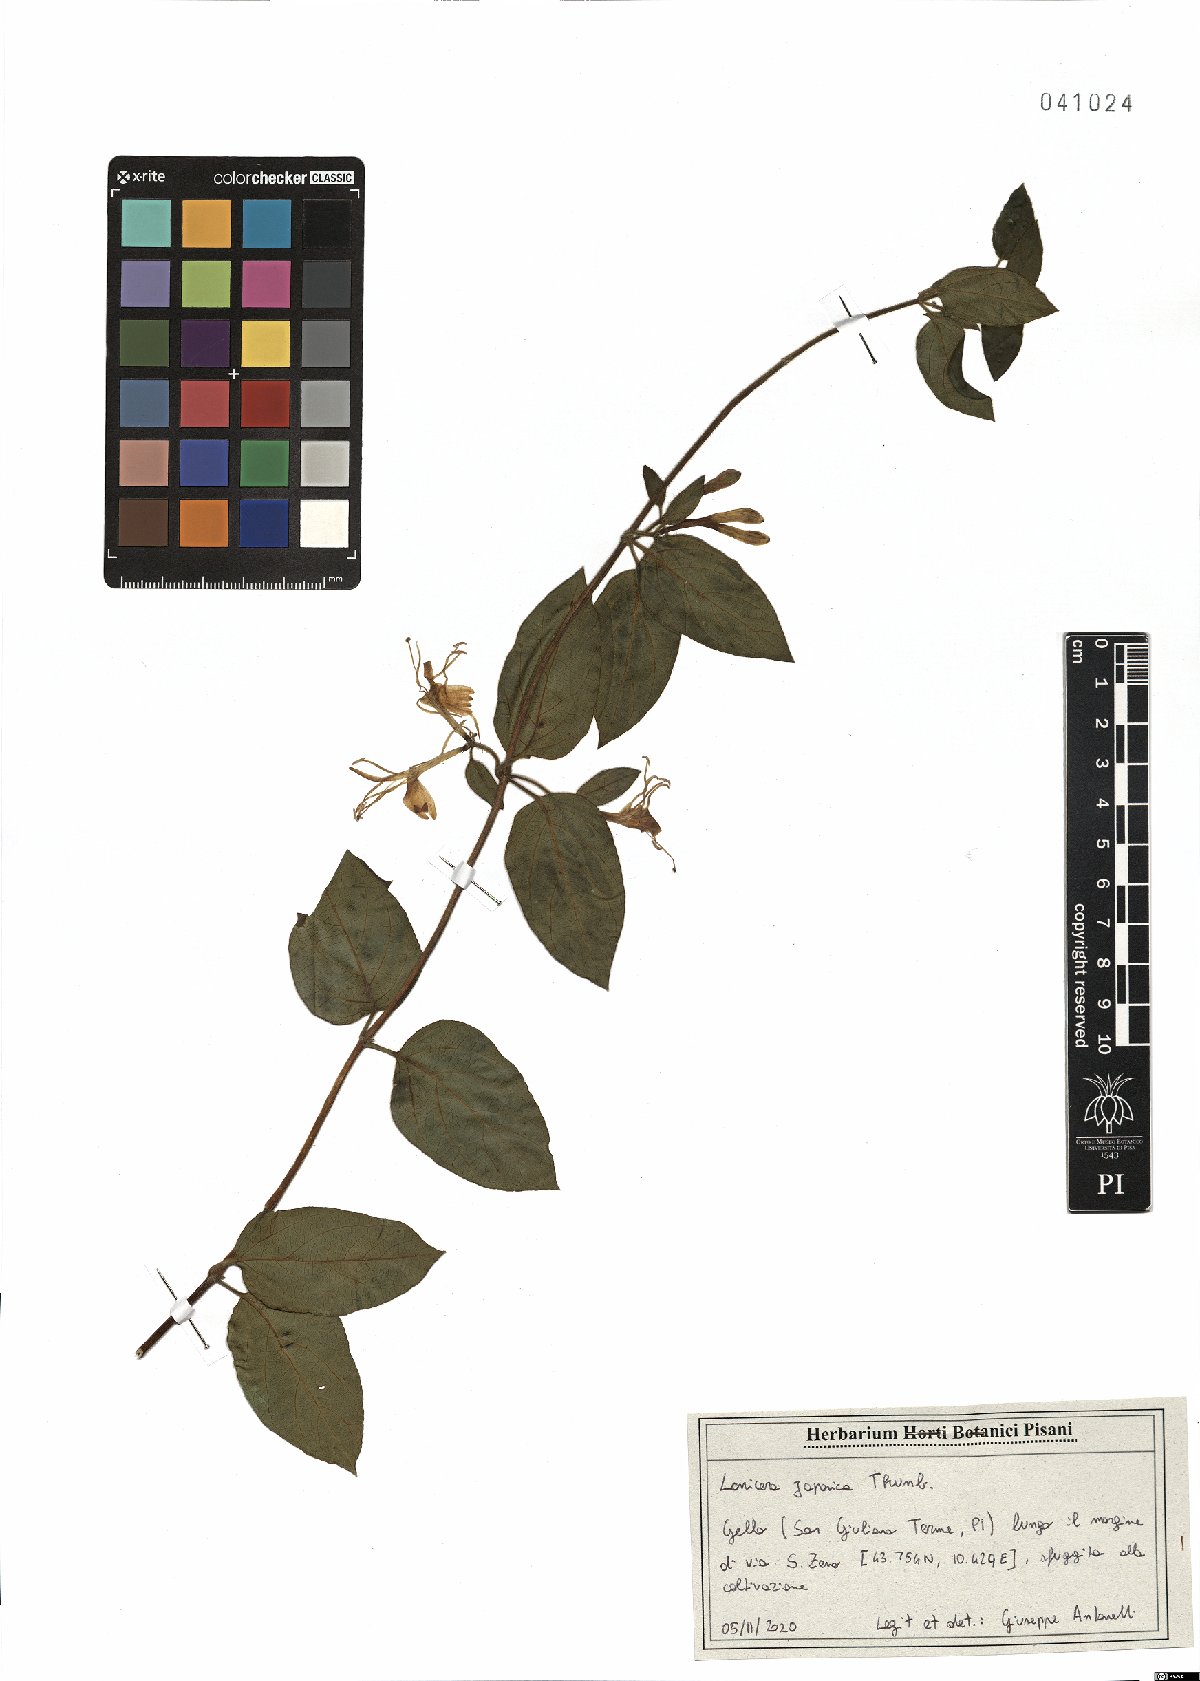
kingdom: Plantae
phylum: Tracheophyta
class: Magnoliopsida
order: Dipsacales
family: Caprifoliaceae
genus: Lonicera
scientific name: Lonicera japonica
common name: Japanese honeysuckle
